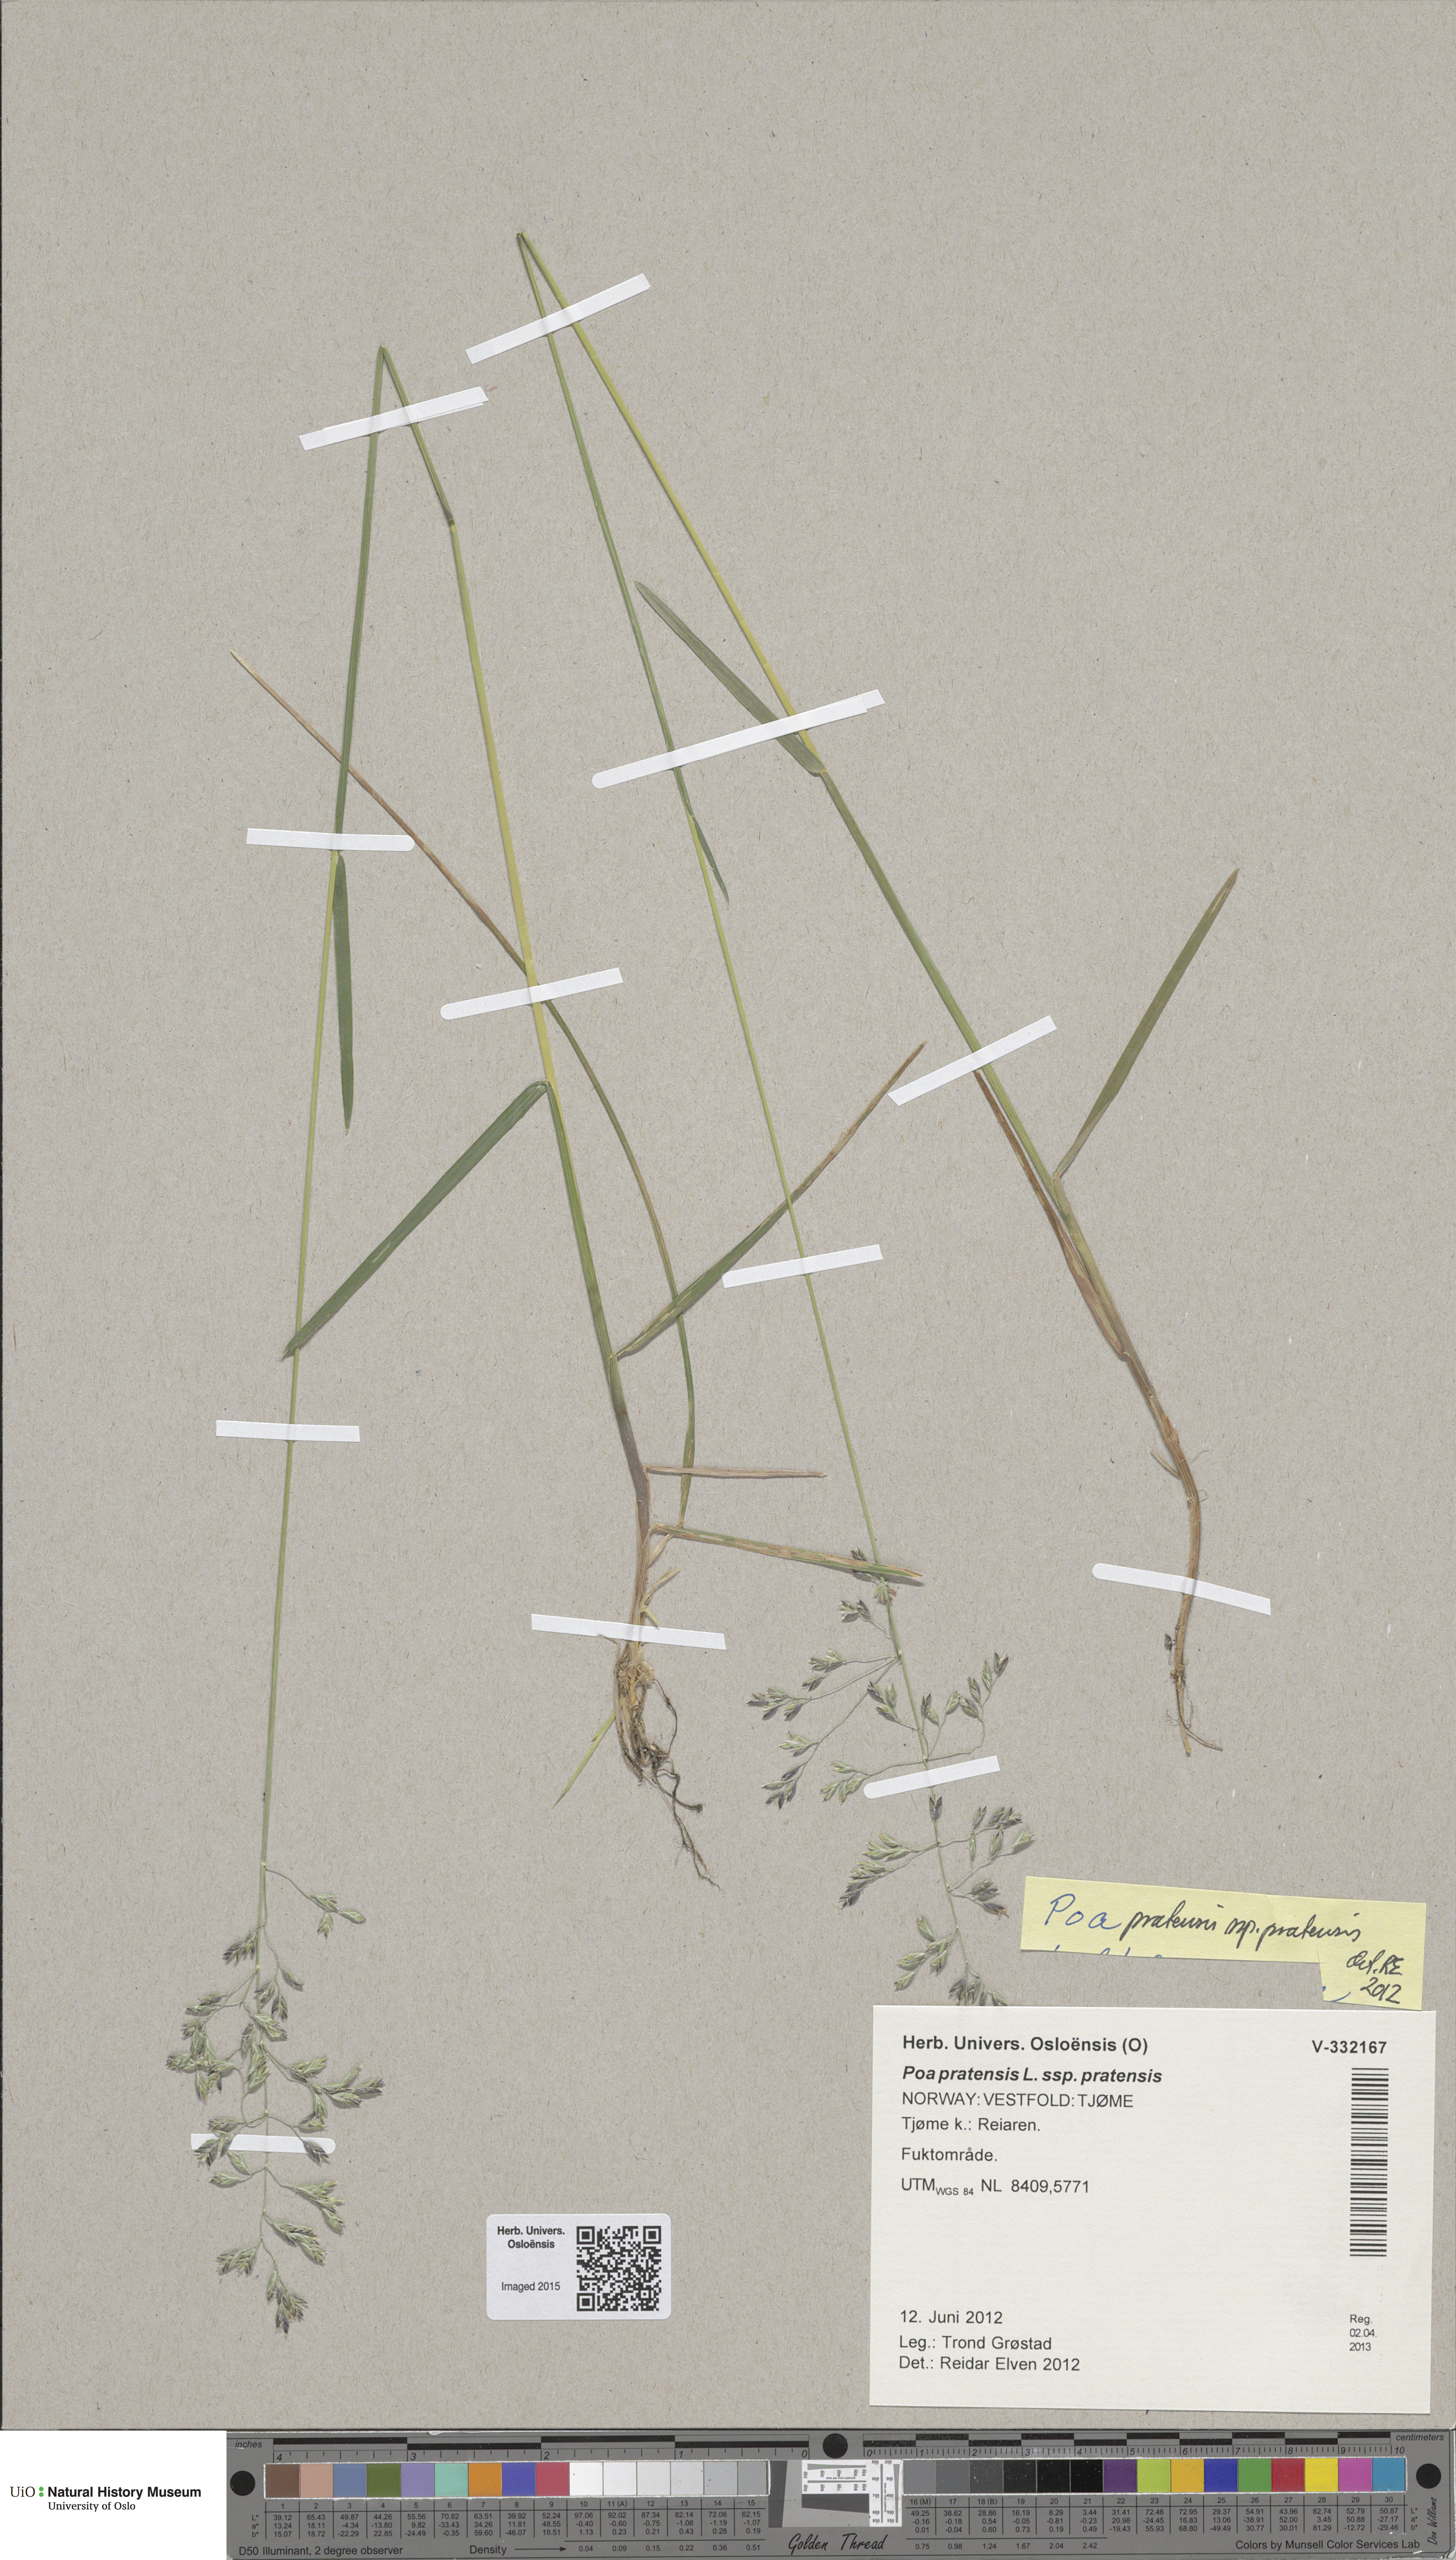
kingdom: Plantae
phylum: Tracheophyta
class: Liliopsida
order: Poales
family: Poaceae
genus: Poa
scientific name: Poa pratensis
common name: Kentucky bluegrass
